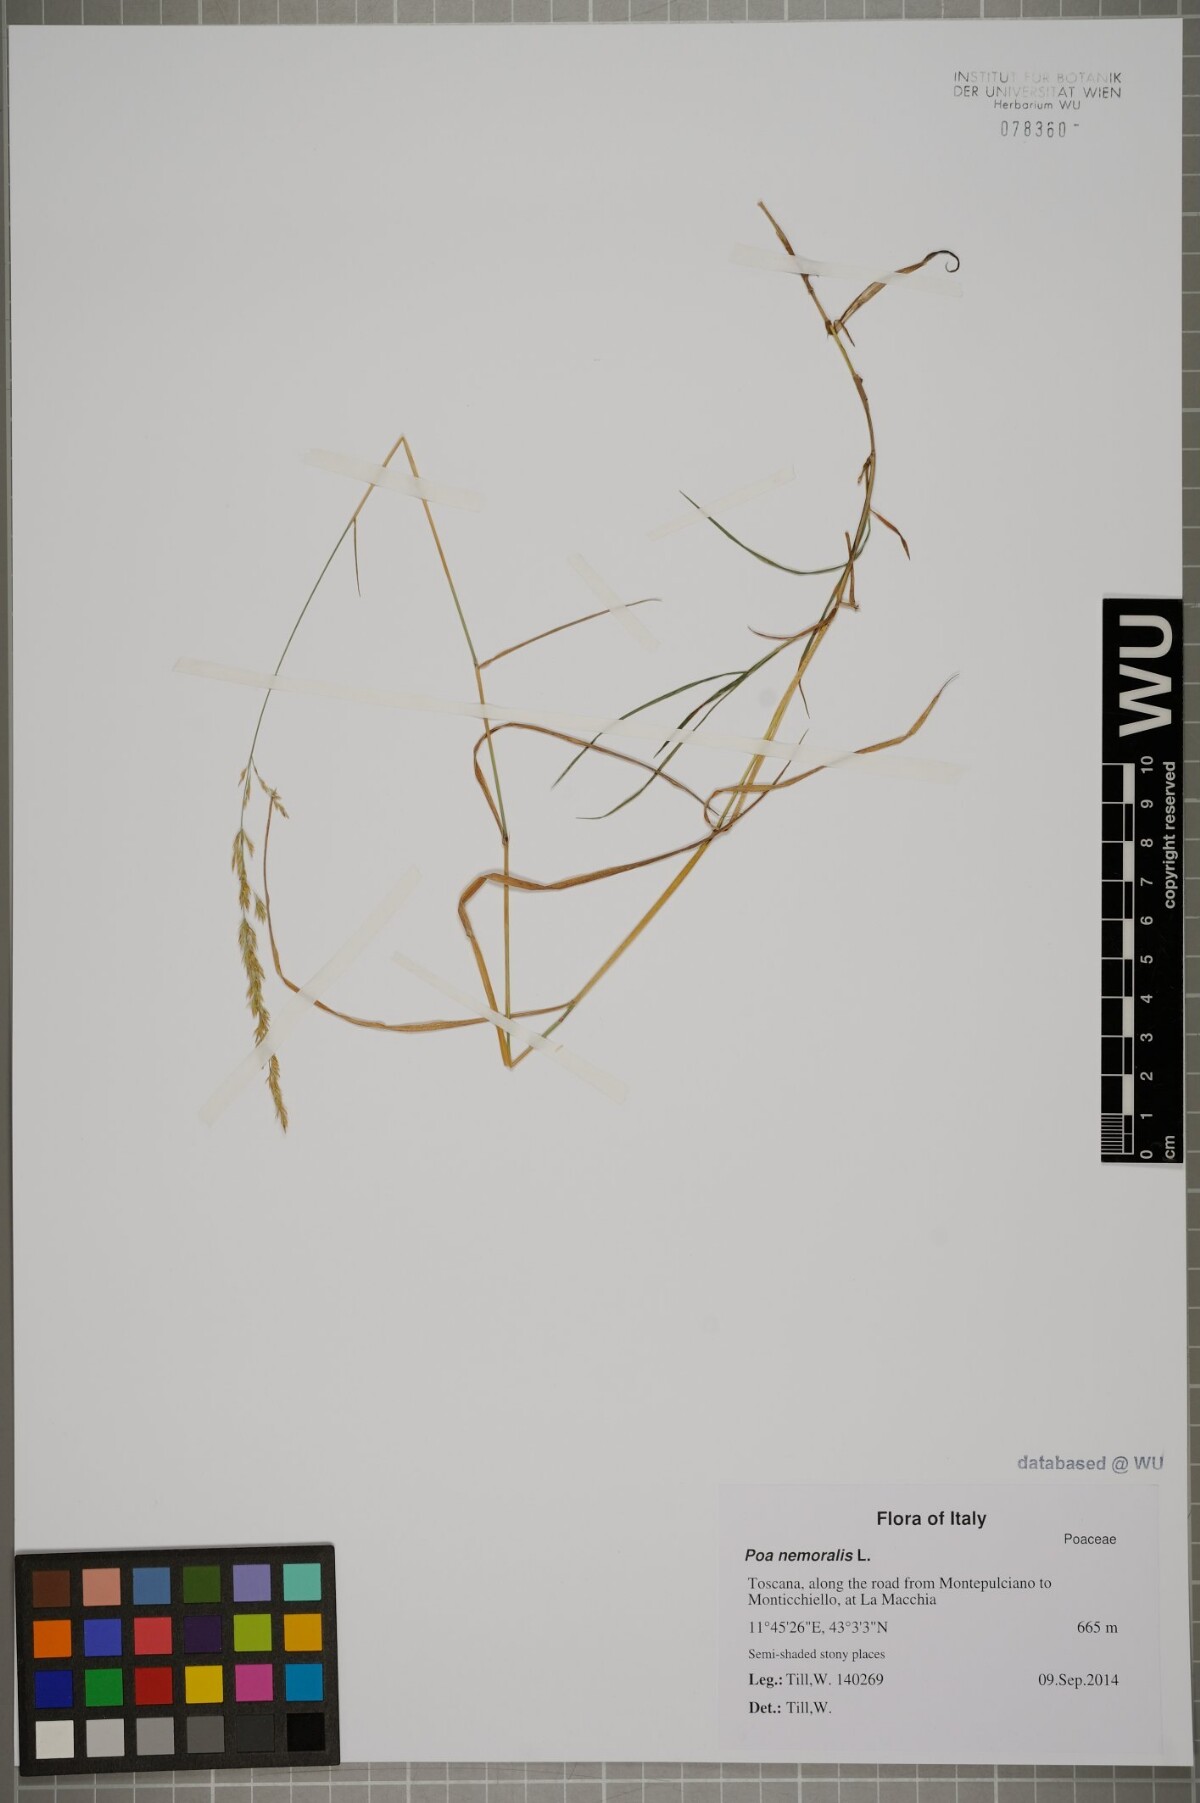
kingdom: Plantae
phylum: Tracheophyta
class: Liliopsida
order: Poales
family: Poaceae
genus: Poa
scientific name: Poa nemoralis
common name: Wood bluegrass
